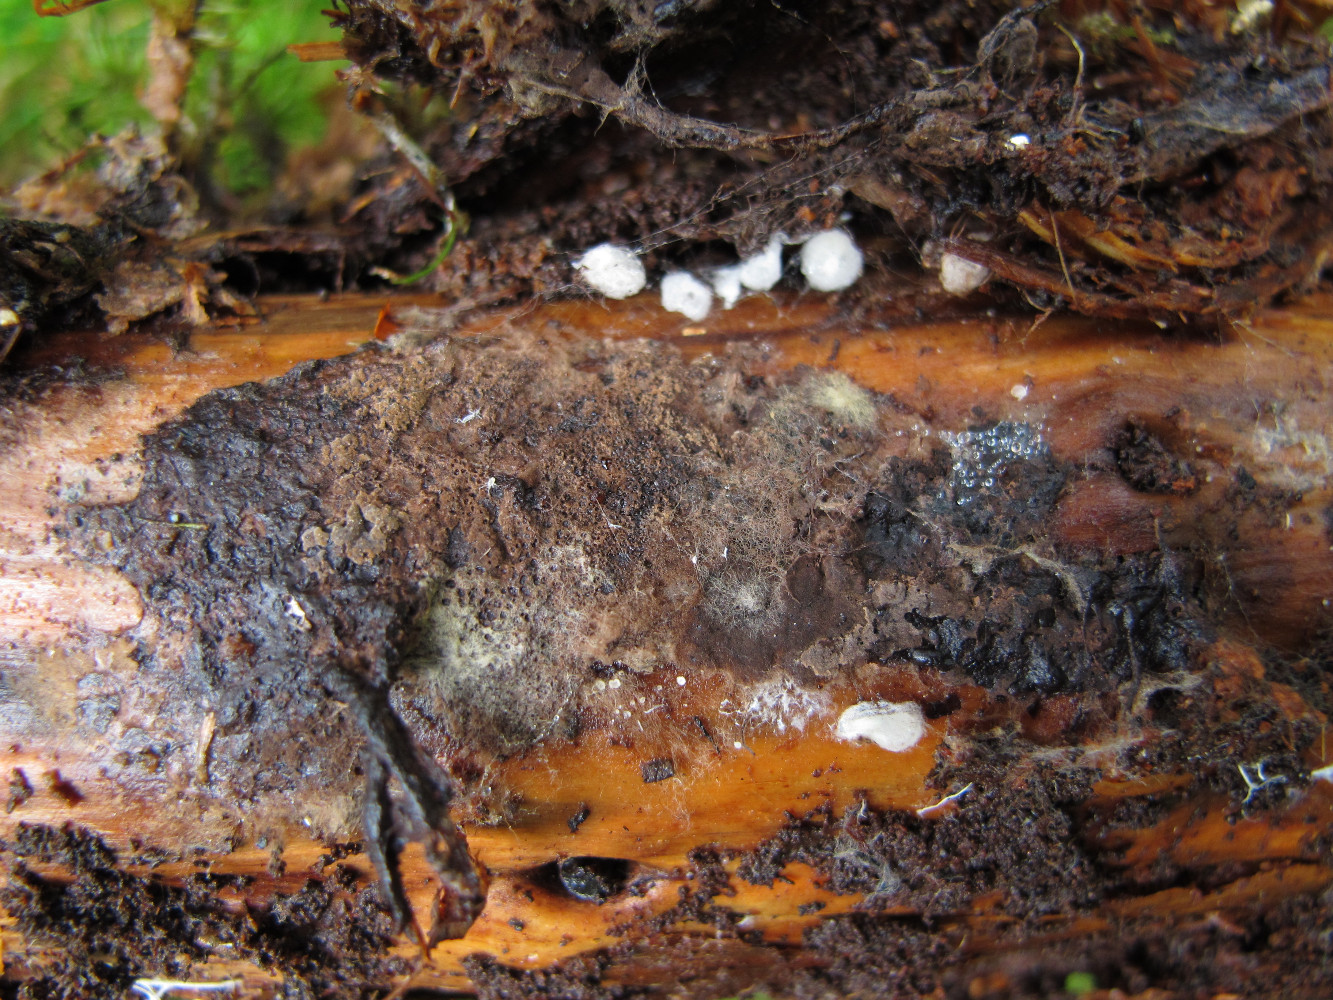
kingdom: Fungi
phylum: Basidiomycota
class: Agaricomycetes
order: Thelephorales
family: Thelephoraceae
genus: Odontia
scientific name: Odontia fibrosa
